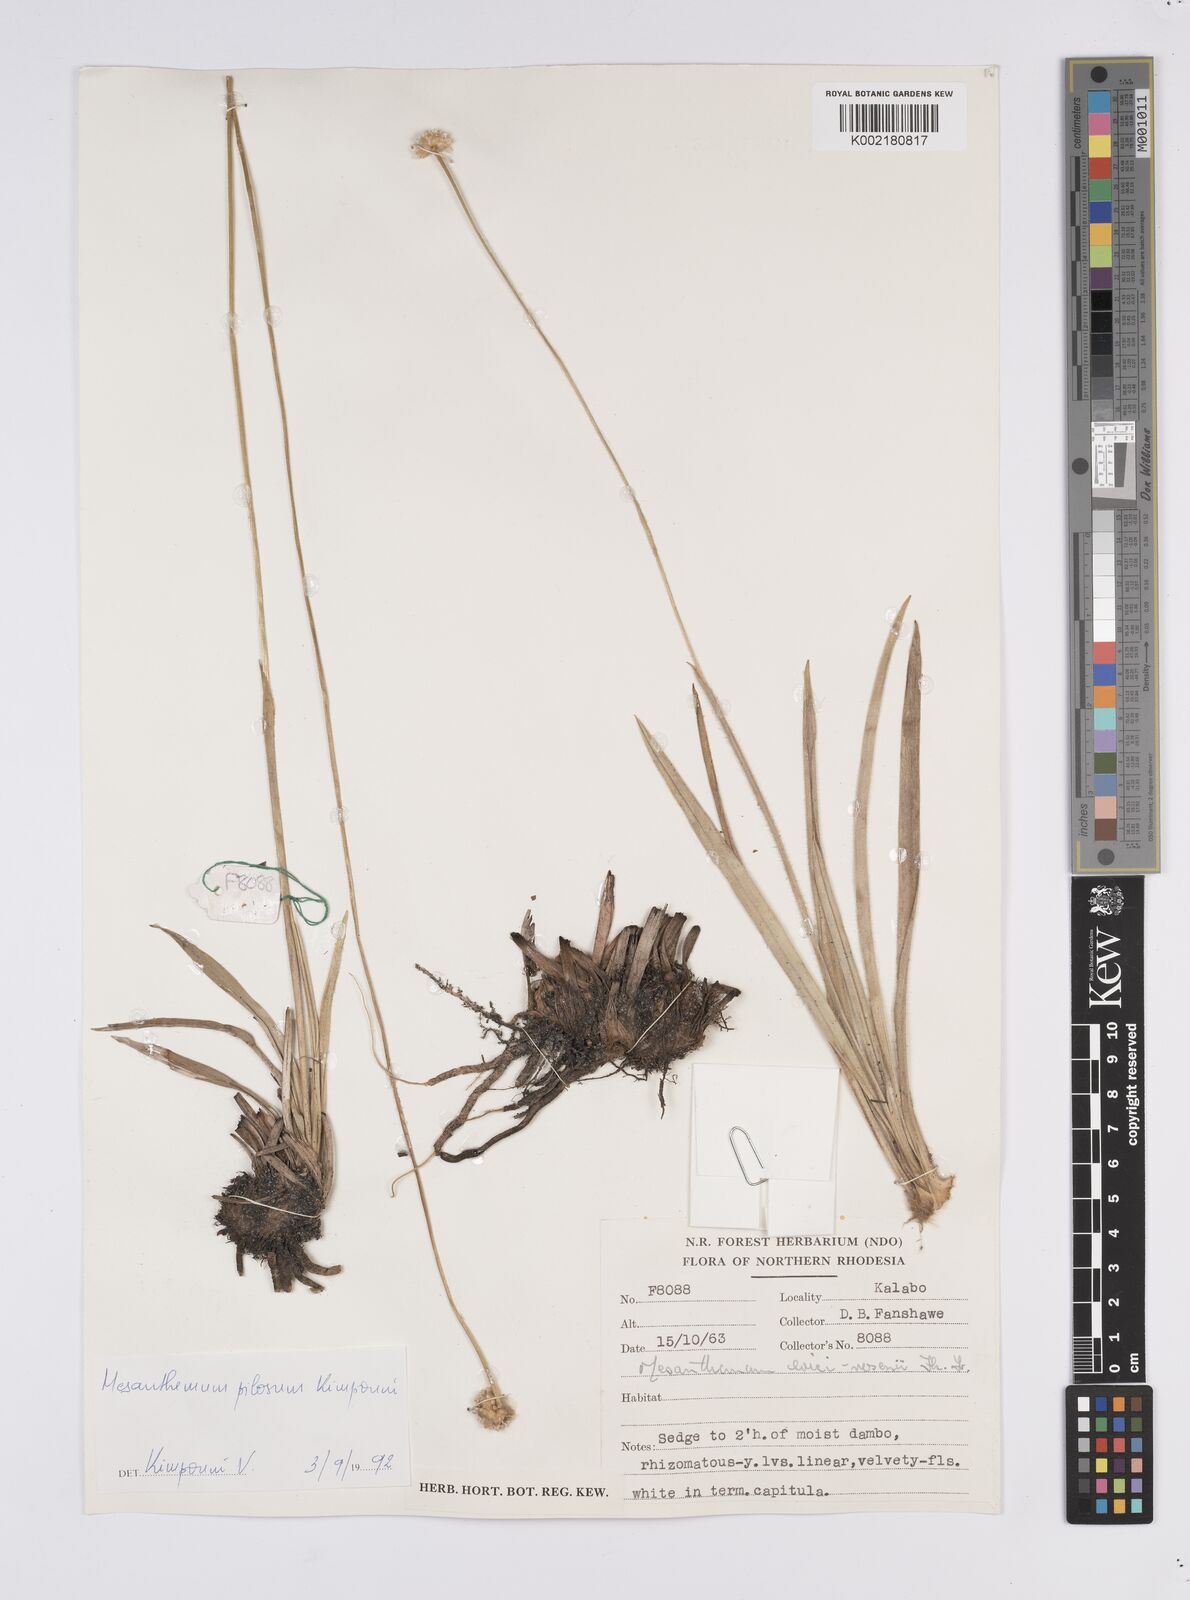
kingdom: Plantae
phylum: Tracheophyta
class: Liliopsida
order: Poales
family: Eriocaulaceae
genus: Mesanthemum
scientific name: Mesanthemum pilosum
